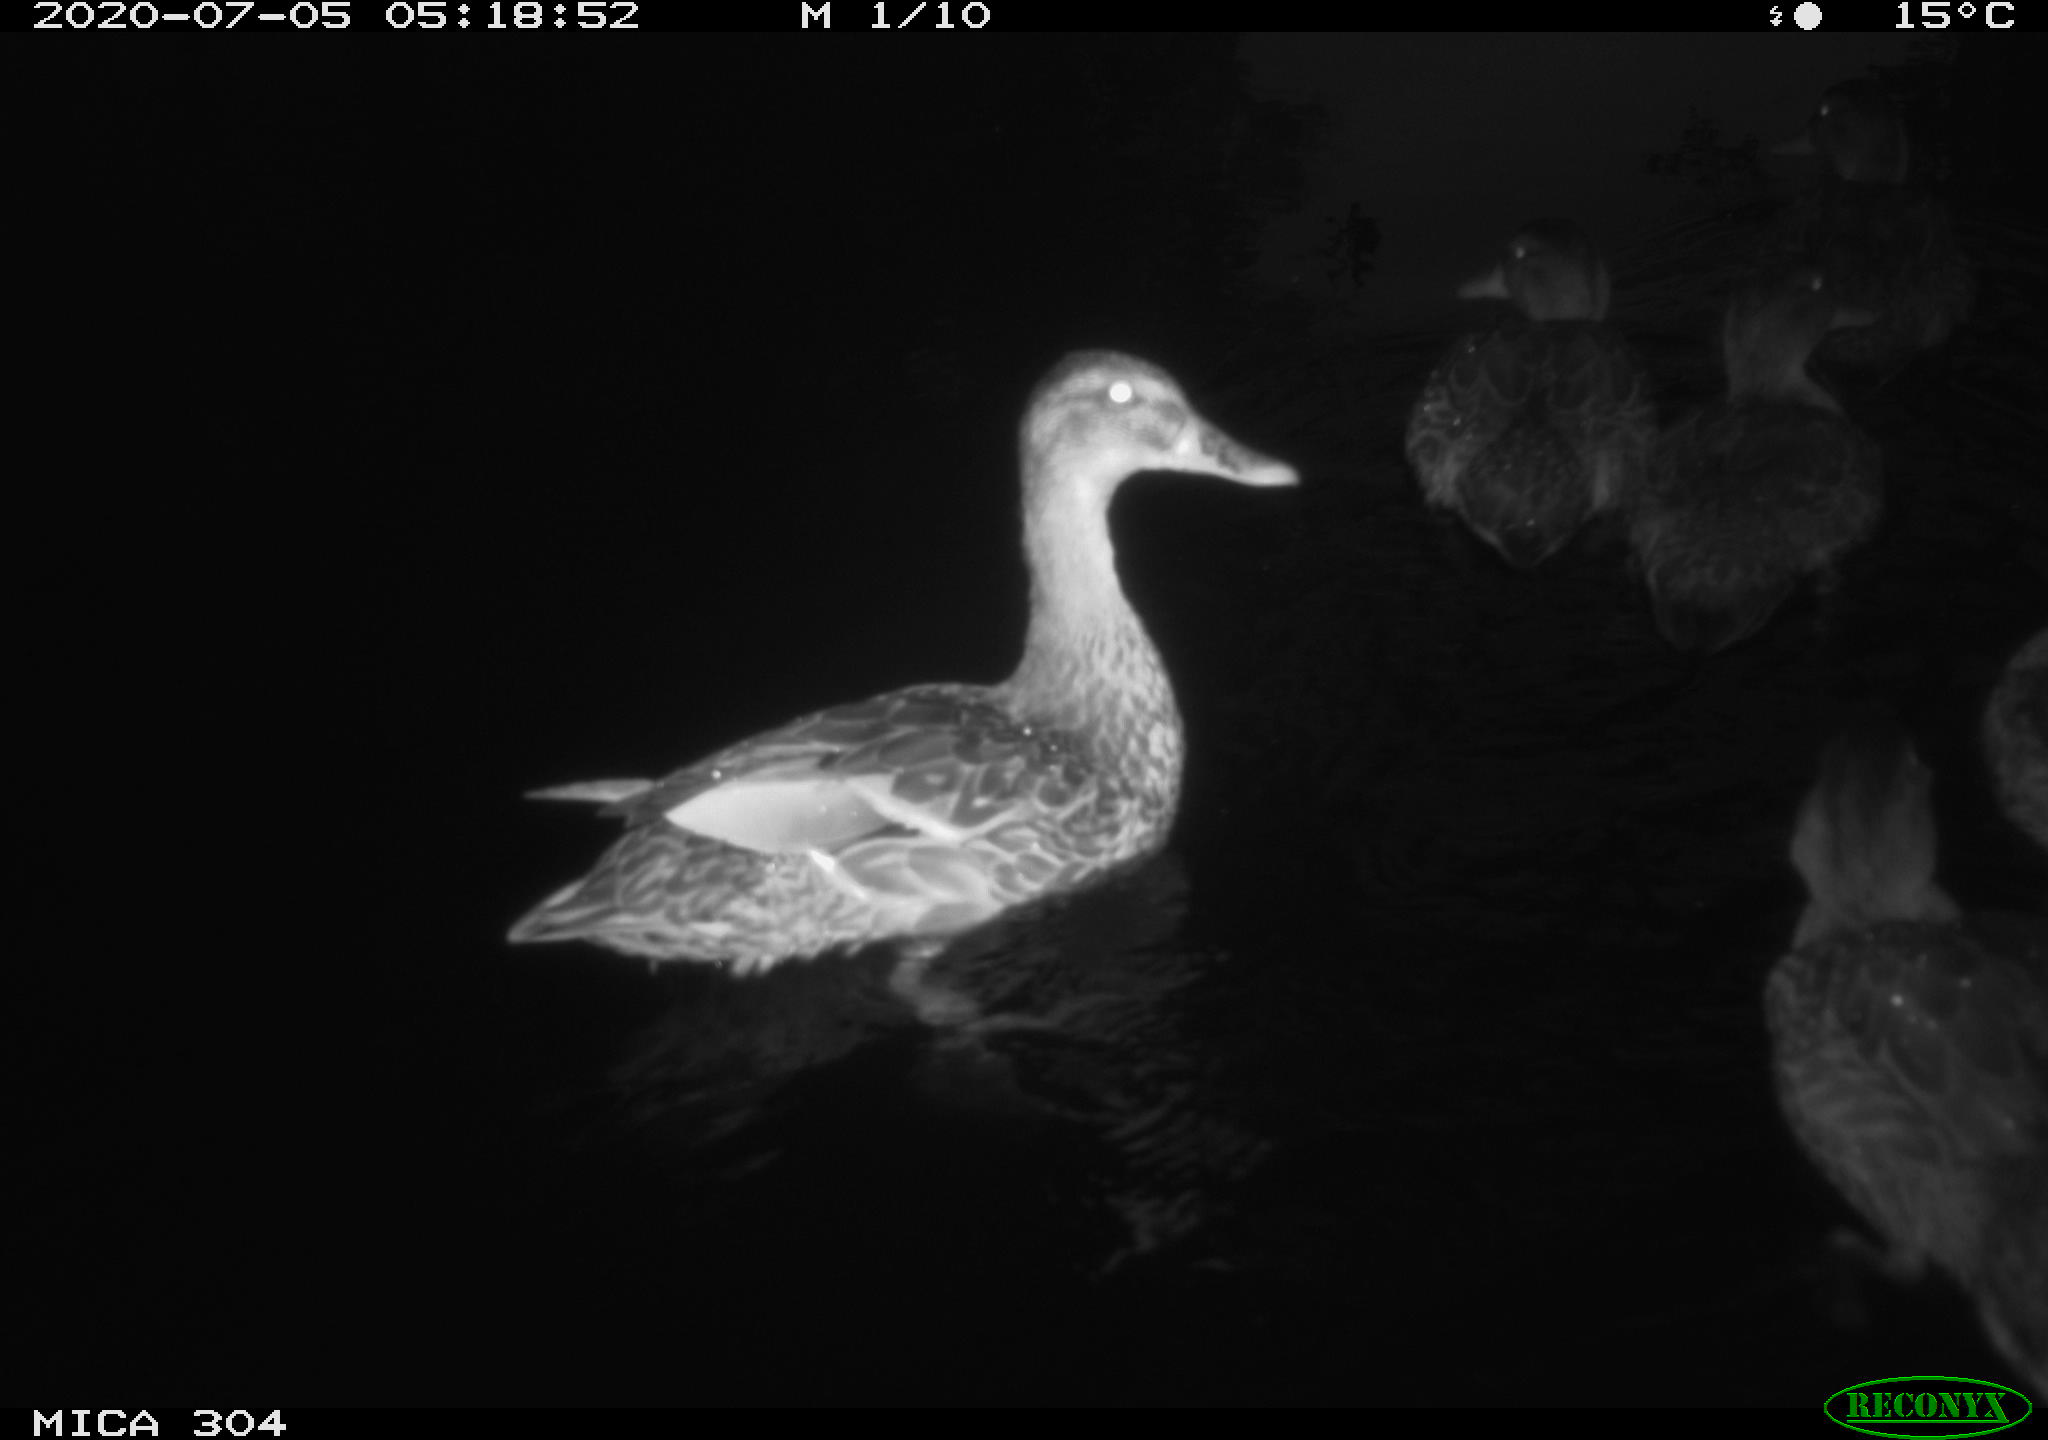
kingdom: Animalia
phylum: Chordata
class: Aves
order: Anseriformes
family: Anatidae
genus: Anas
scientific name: Anas platyrhynchos
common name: Mallard
